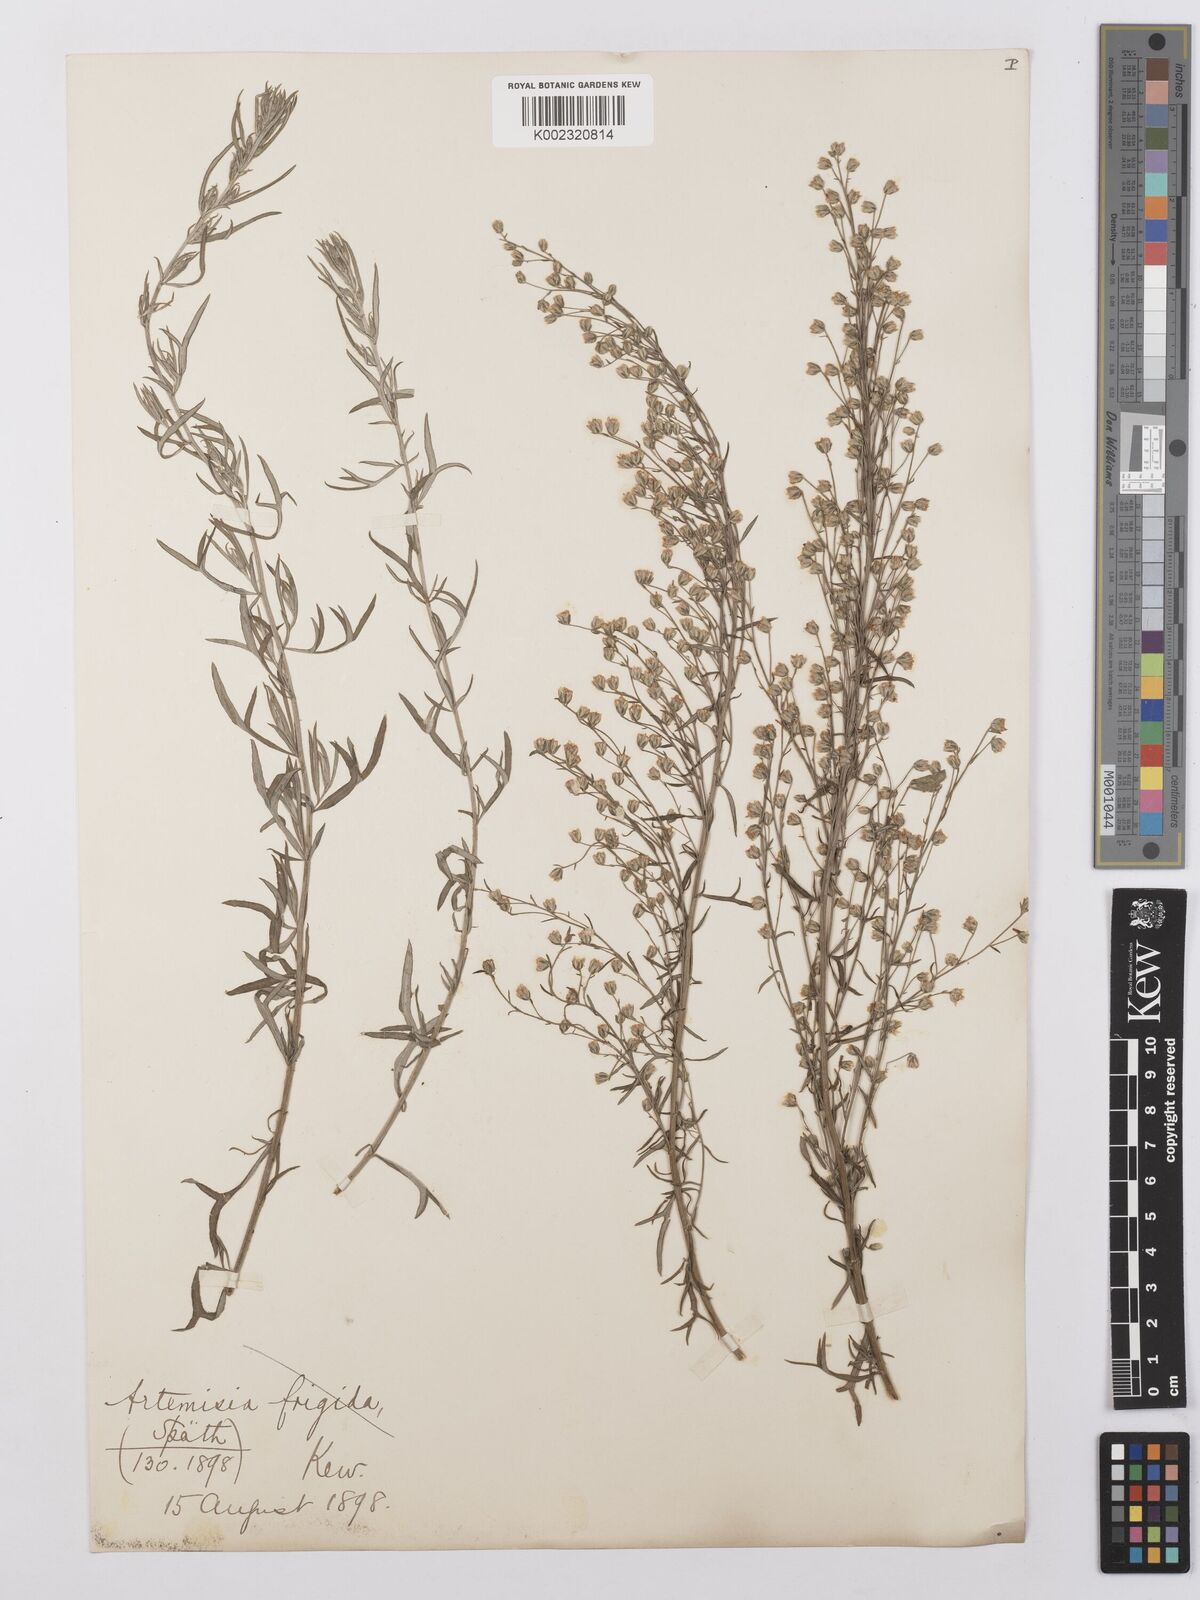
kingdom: Plantae
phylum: Tracheophyta
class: Magnoliopsida
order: Asterales
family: Asteraceae
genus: Artemisia
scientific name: Artemisia frigida
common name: Prairie sagewort
